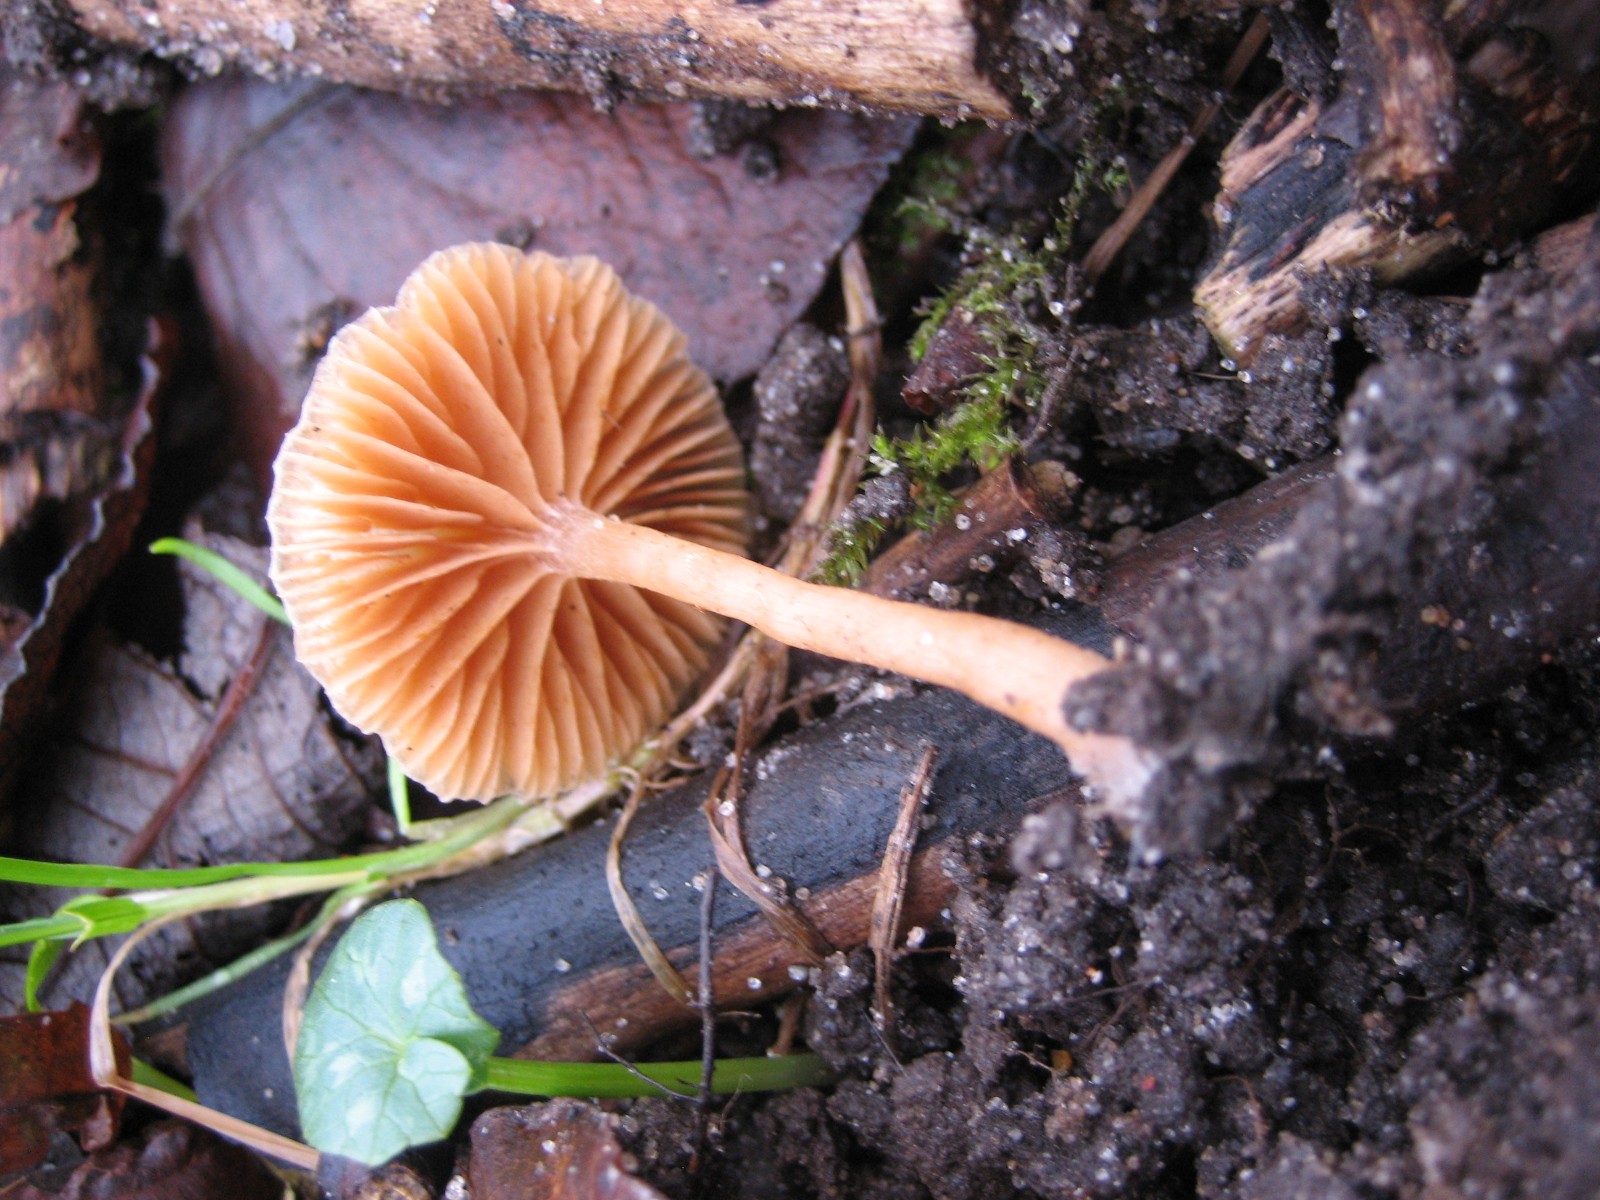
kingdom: Fungi
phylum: Basidiomycota
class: Agaricomycetes
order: Agaricales
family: Tubariaceae
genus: Tubaria
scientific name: Tubaria furfuracea
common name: kliddet fnughat
